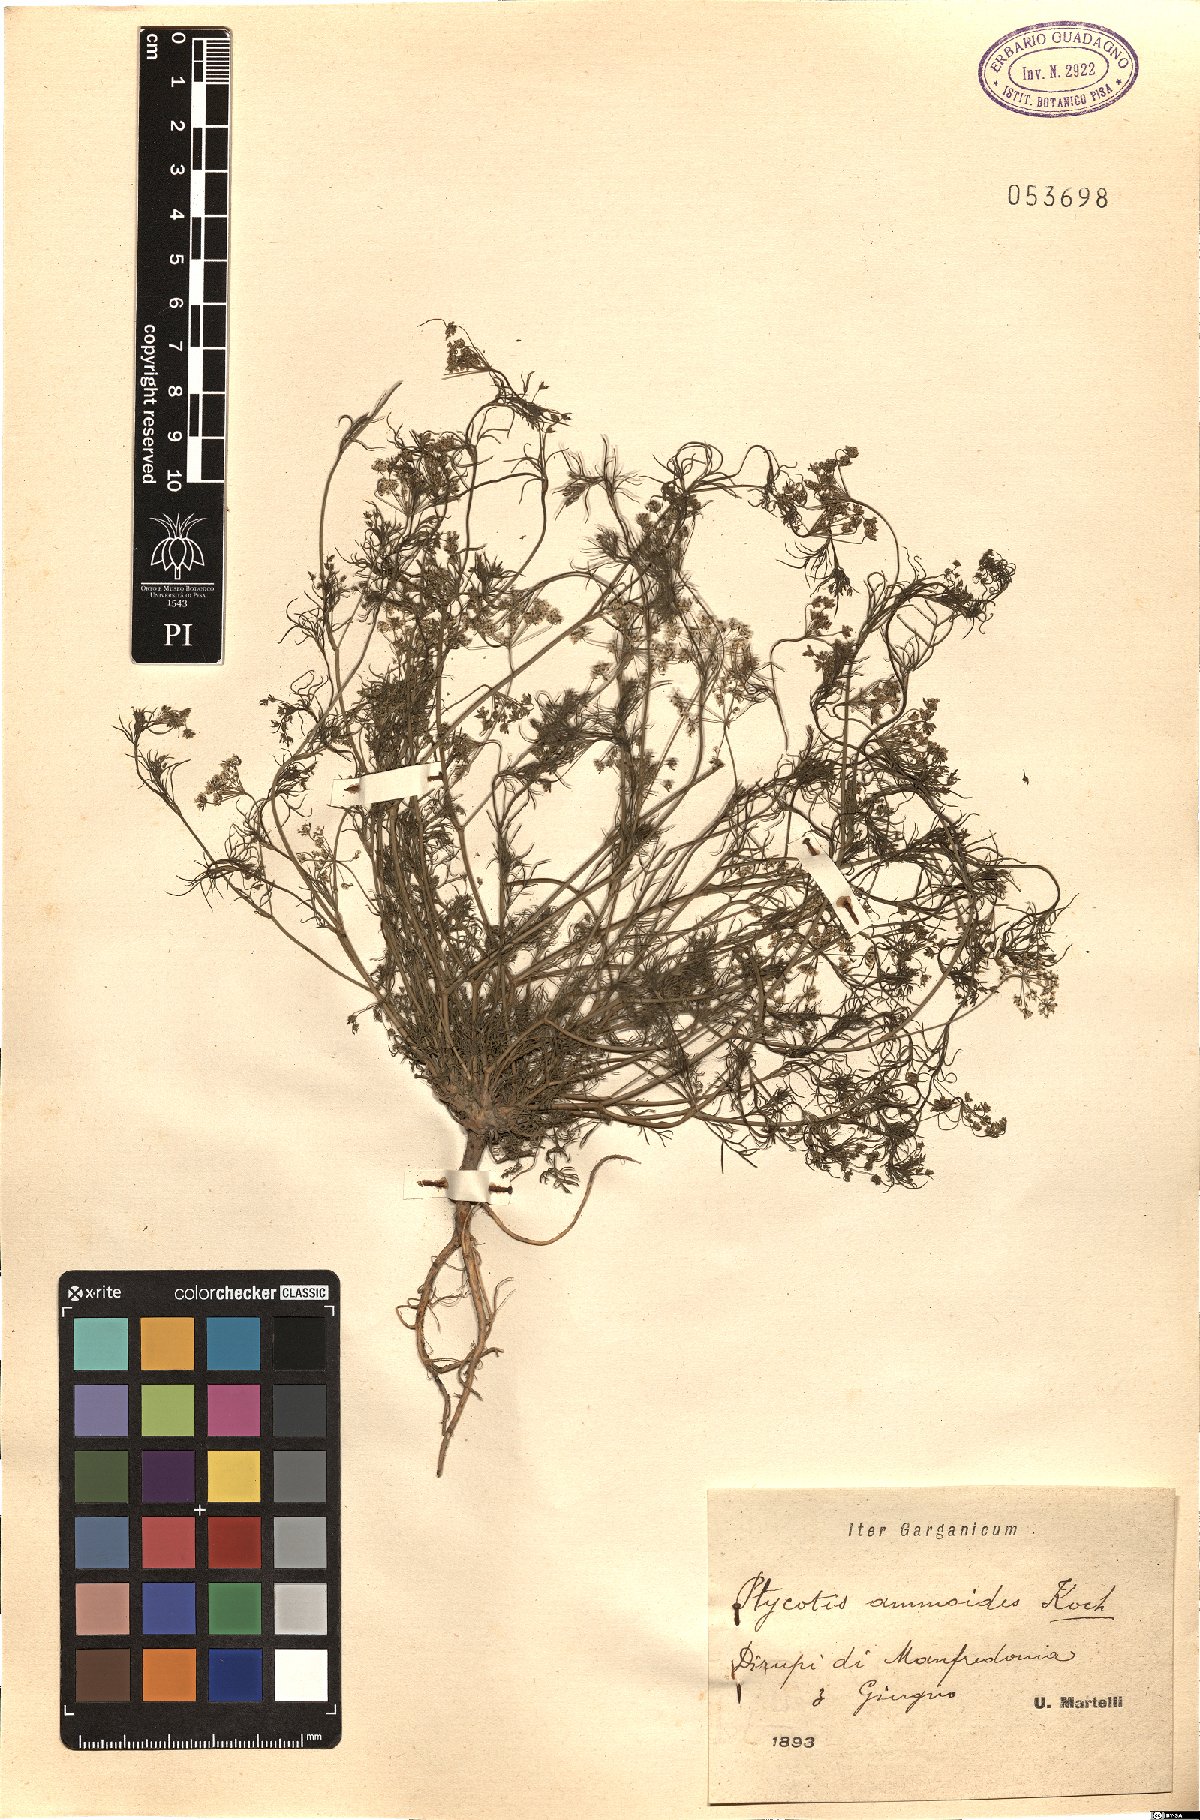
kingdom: Plantae
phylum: Tracheophyta
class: Magnoliopsida
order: Apiales
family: Apiaceae
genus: Ammoides
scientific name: Ammoides pusilla
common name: Cerfolium
